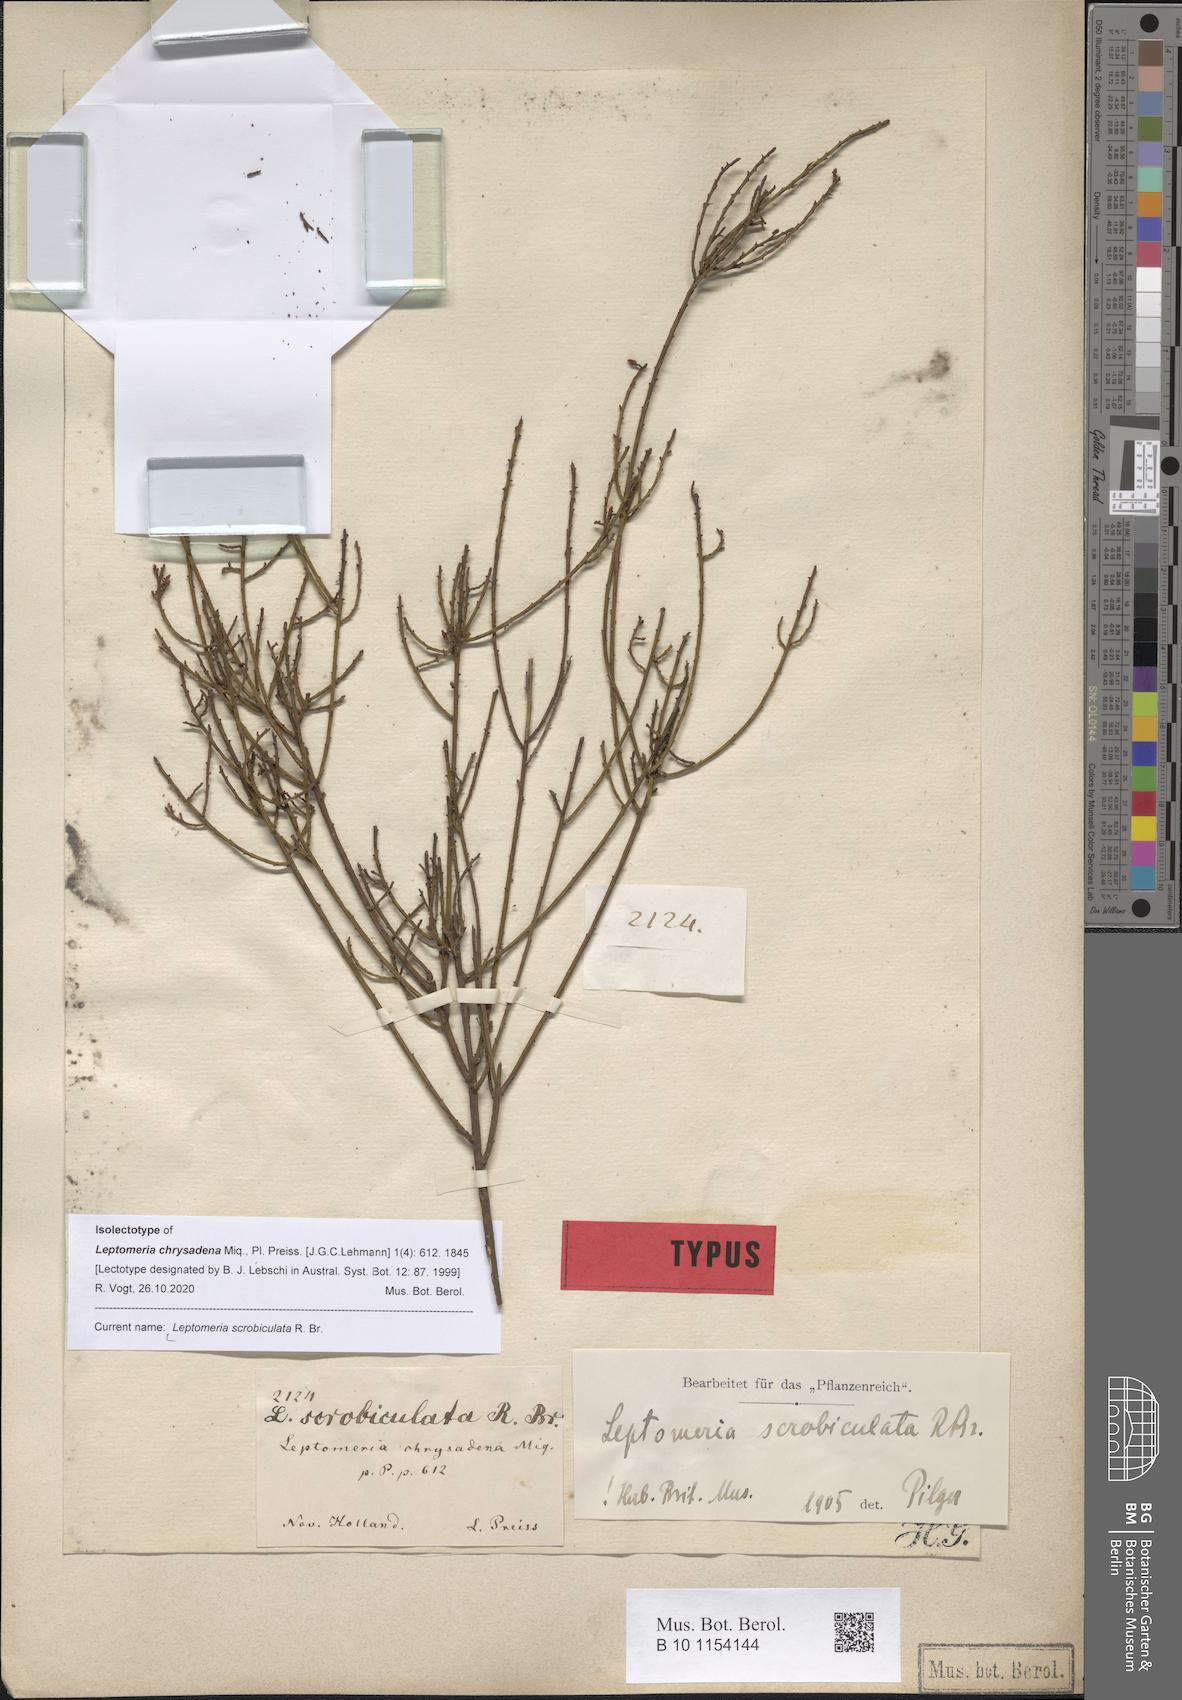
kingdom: Plantae
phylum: Tracheophyta
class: Magnoliopsida
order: Santalales
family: Amphorogynaceae
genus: Leptomeria
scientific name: Leptomeria scrobiculata
